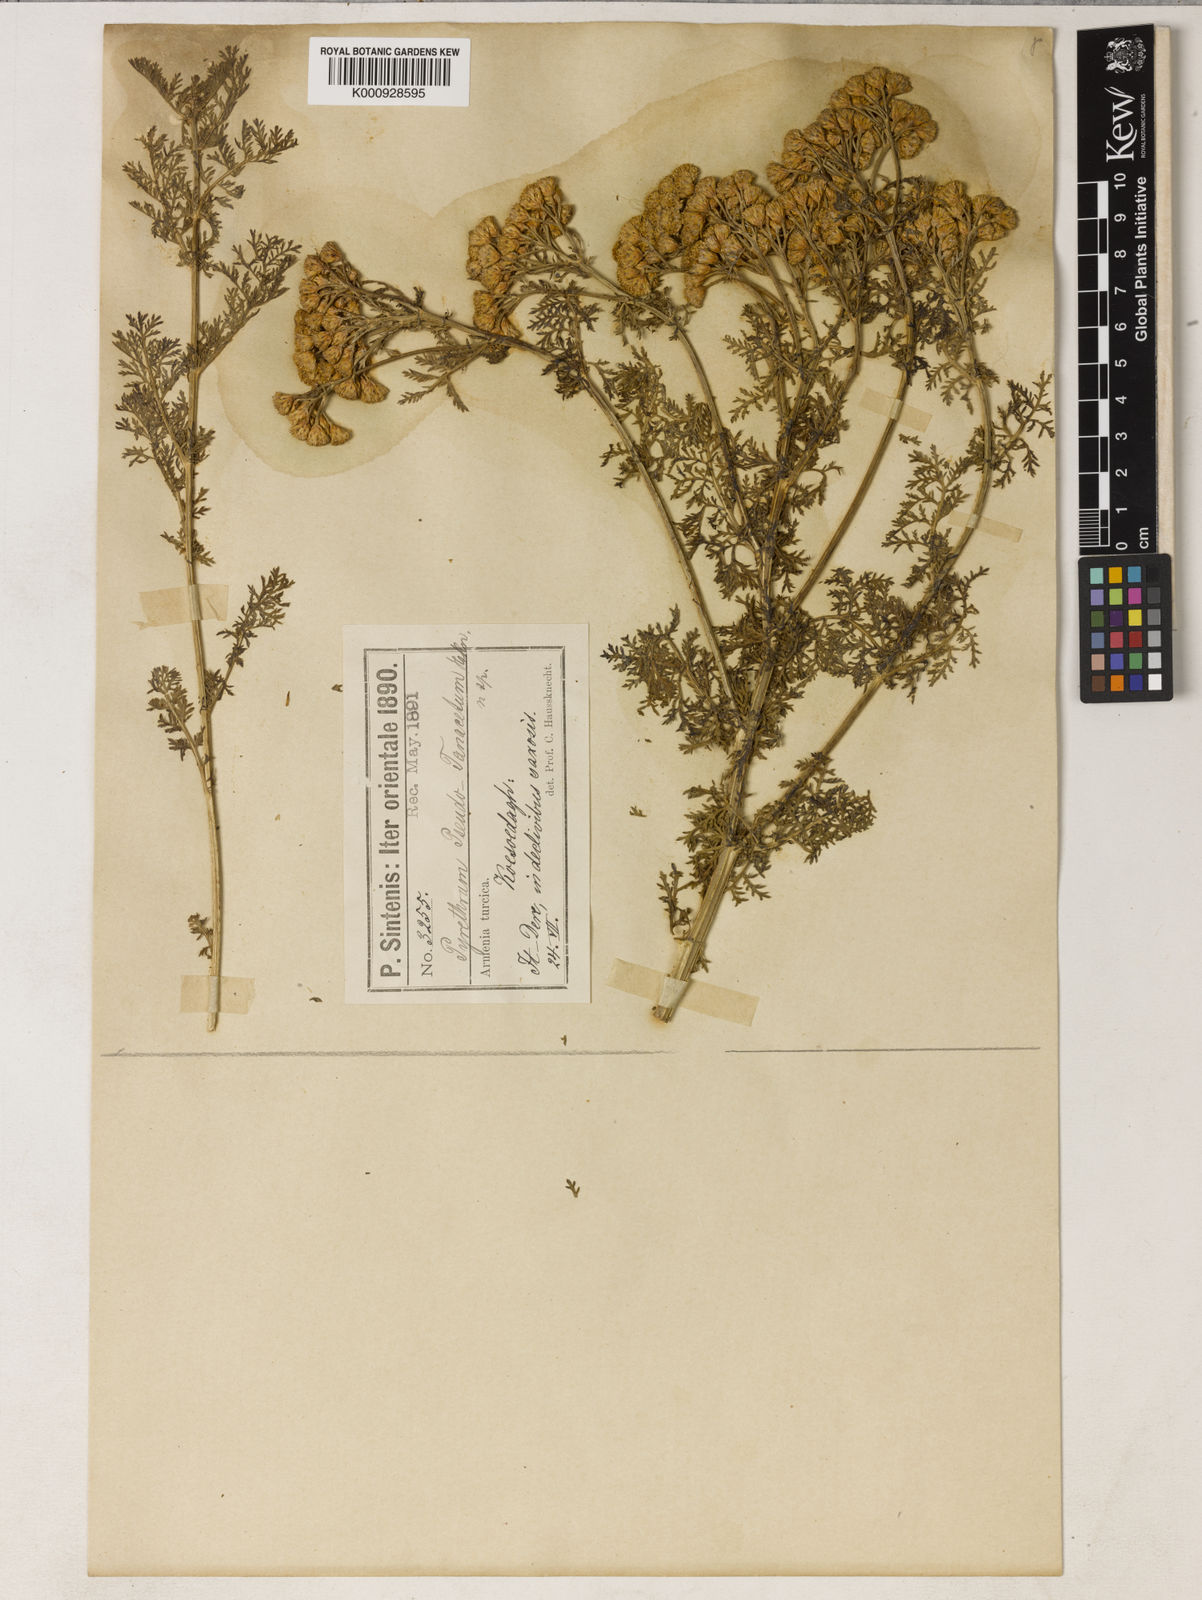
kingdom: Plantae
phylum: Tracheophyta
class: Magnoliopsida
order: Asterales
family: Asteraceae
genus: Tanacetum
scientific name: Tanacetum abrotanifolium
